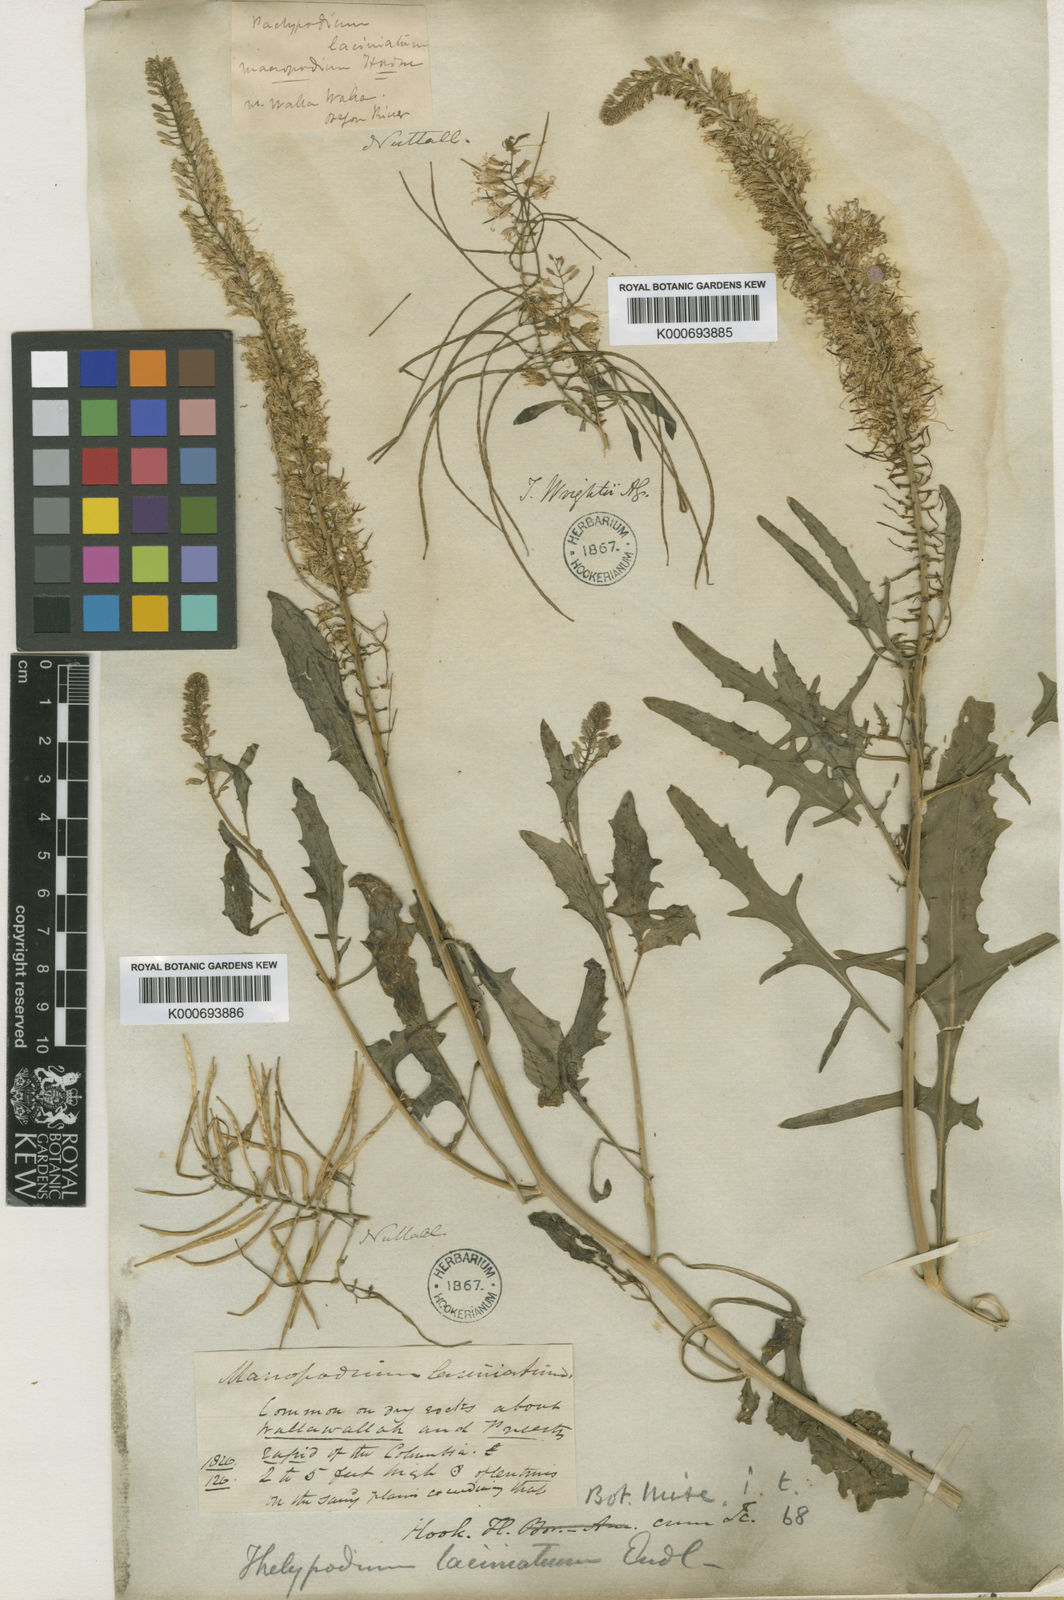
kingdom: Plantae
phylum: Tracheophyta
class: Magnoliopsida
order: Brassicales
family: Brassicaceae
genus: Thelypodium
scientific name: Thelypodium laciniatum
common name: Cut-leaved thelypody
